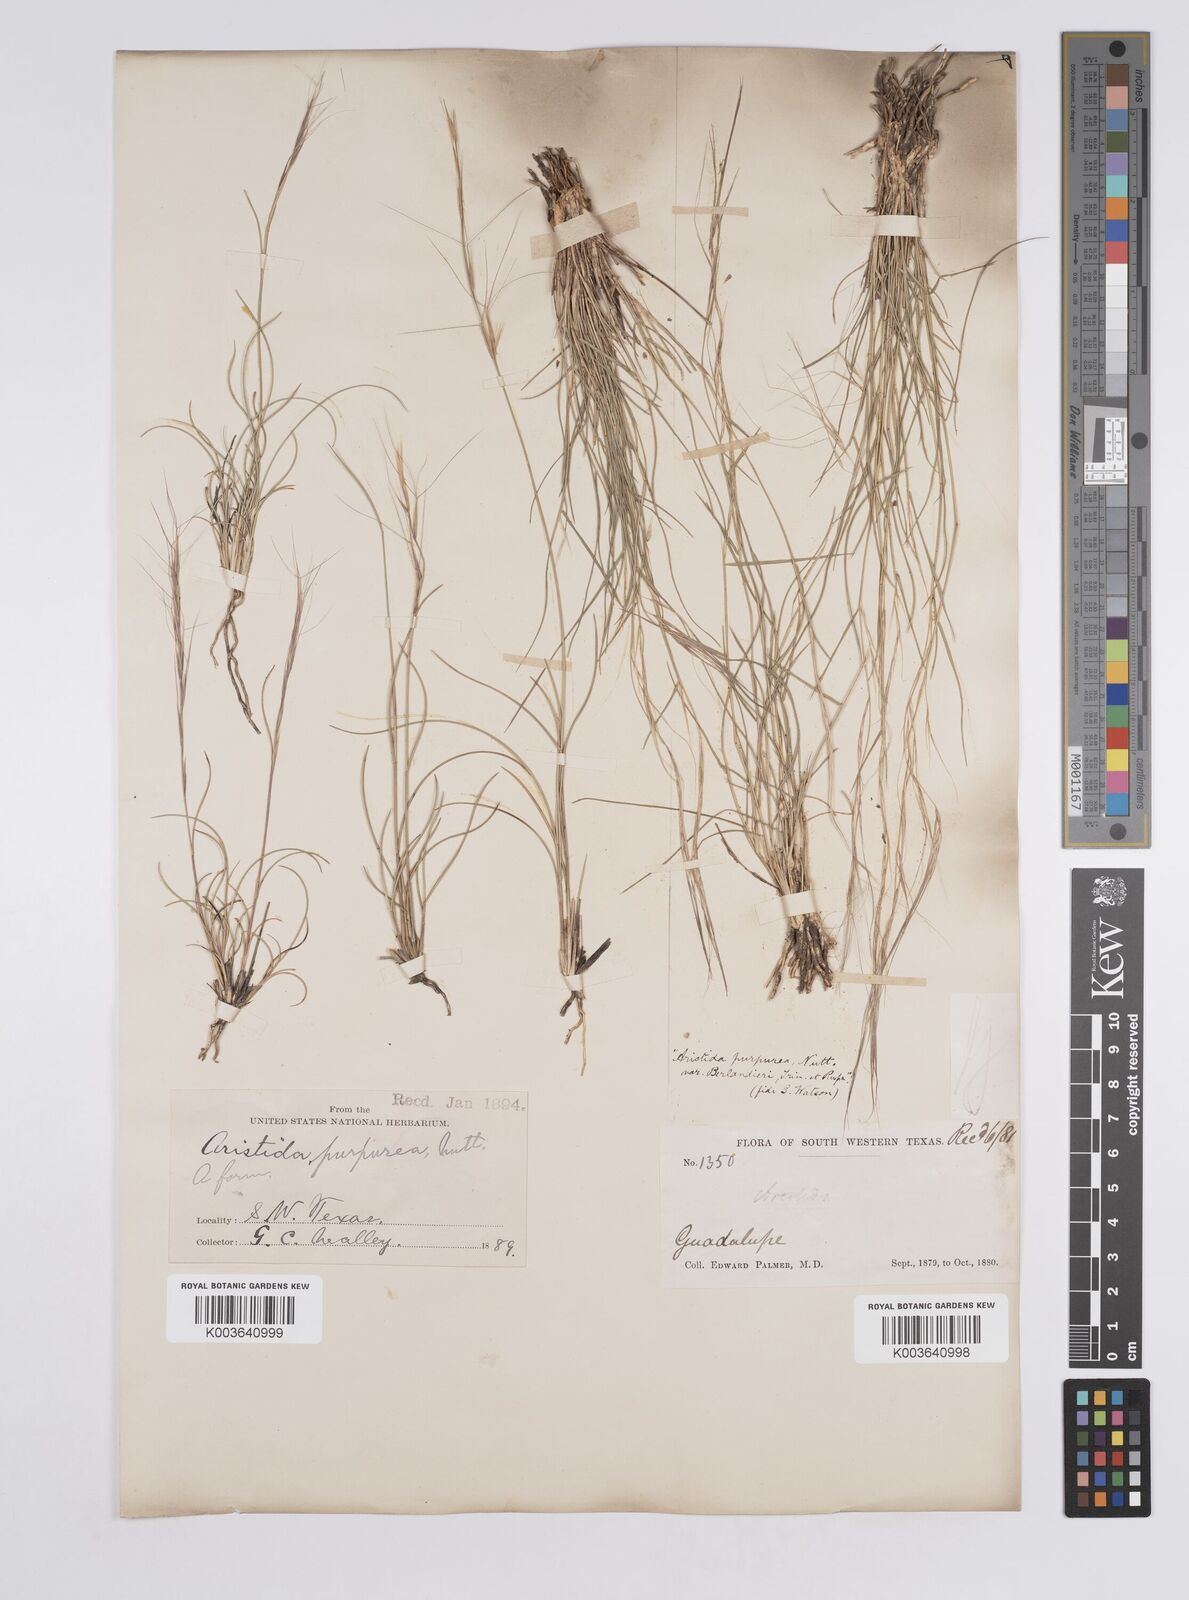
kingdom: Plantae
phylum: Tracheophyta
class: Liliopsida
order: Poales
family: Poaceae
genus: Aristida
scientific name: Aristida purpurea
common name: Purple threeawn
